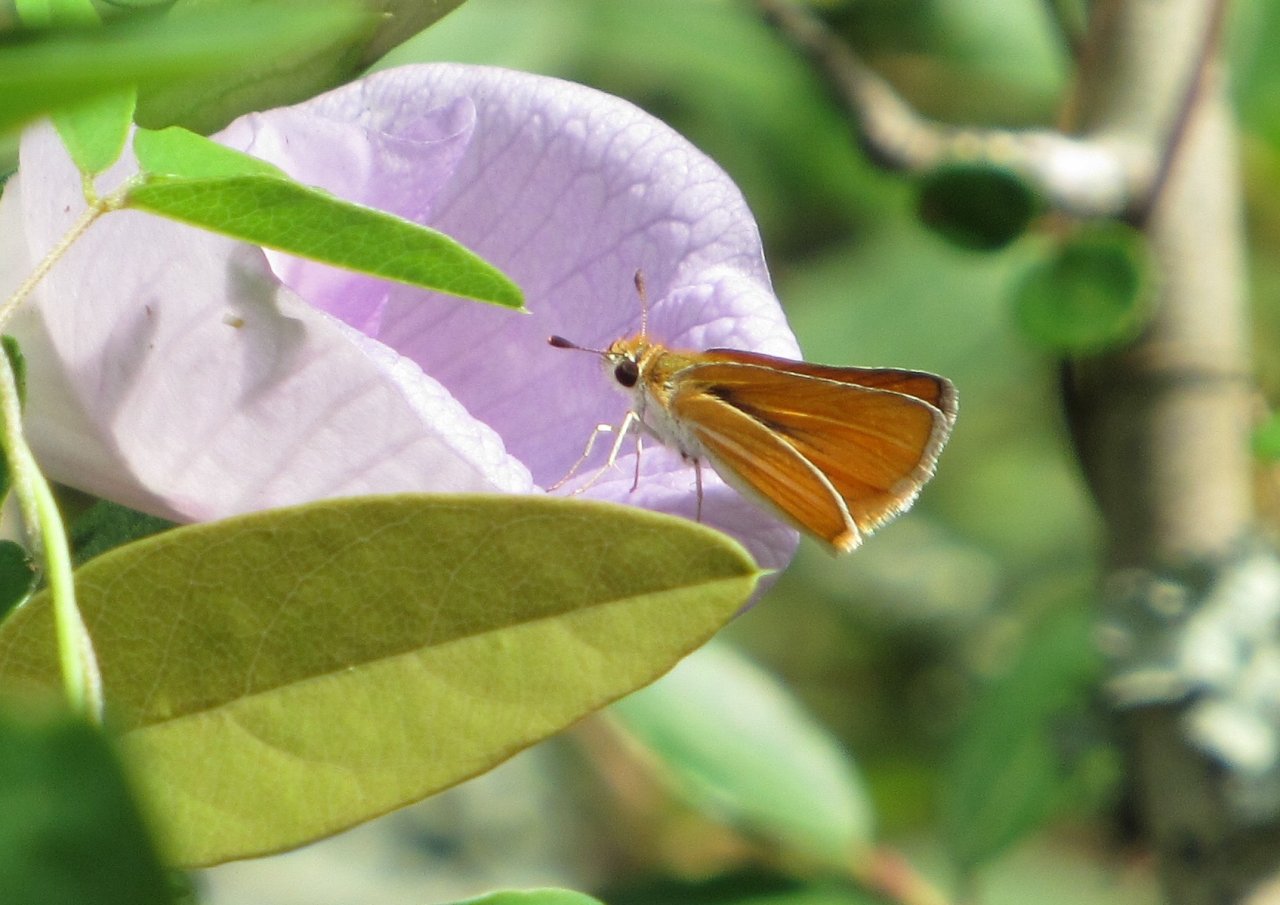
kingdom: Animalia
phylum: Arthropoda
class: Insecta
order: Lepidoptera
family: Hesperiidae
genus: Copaeodes
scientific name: Copaeodes minima
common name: Southern Skipperling
